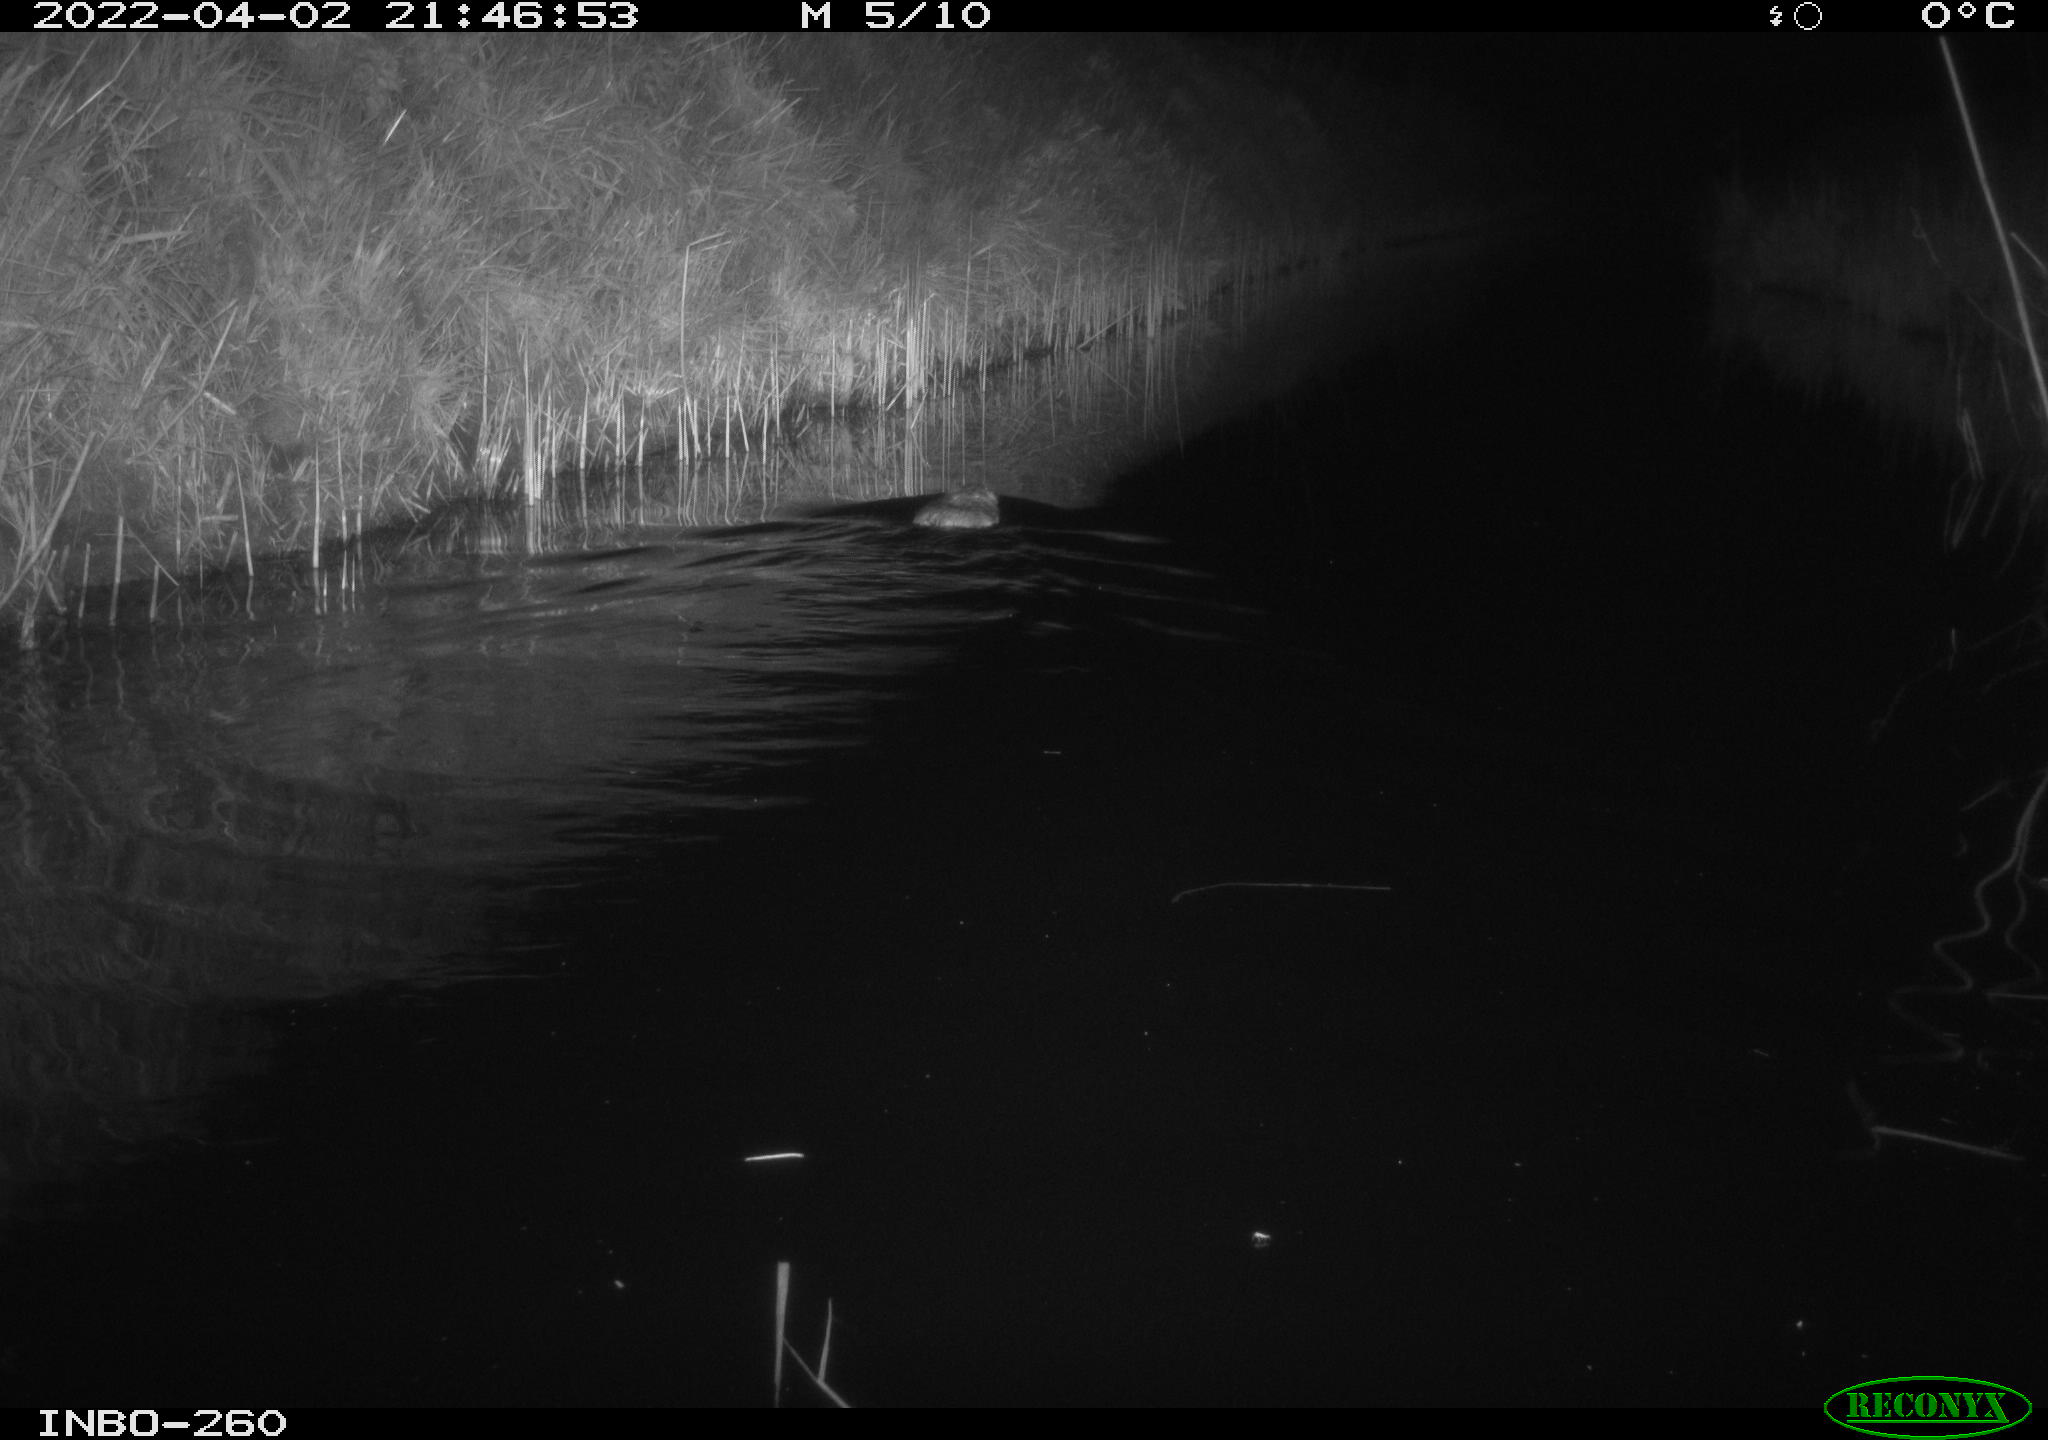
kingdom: Animalia
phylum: Chordata
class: Mammalia
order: Rodentia
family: Cricetidae
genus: Ondatra
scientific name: Ondatra zibethicus
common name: Muskrat
